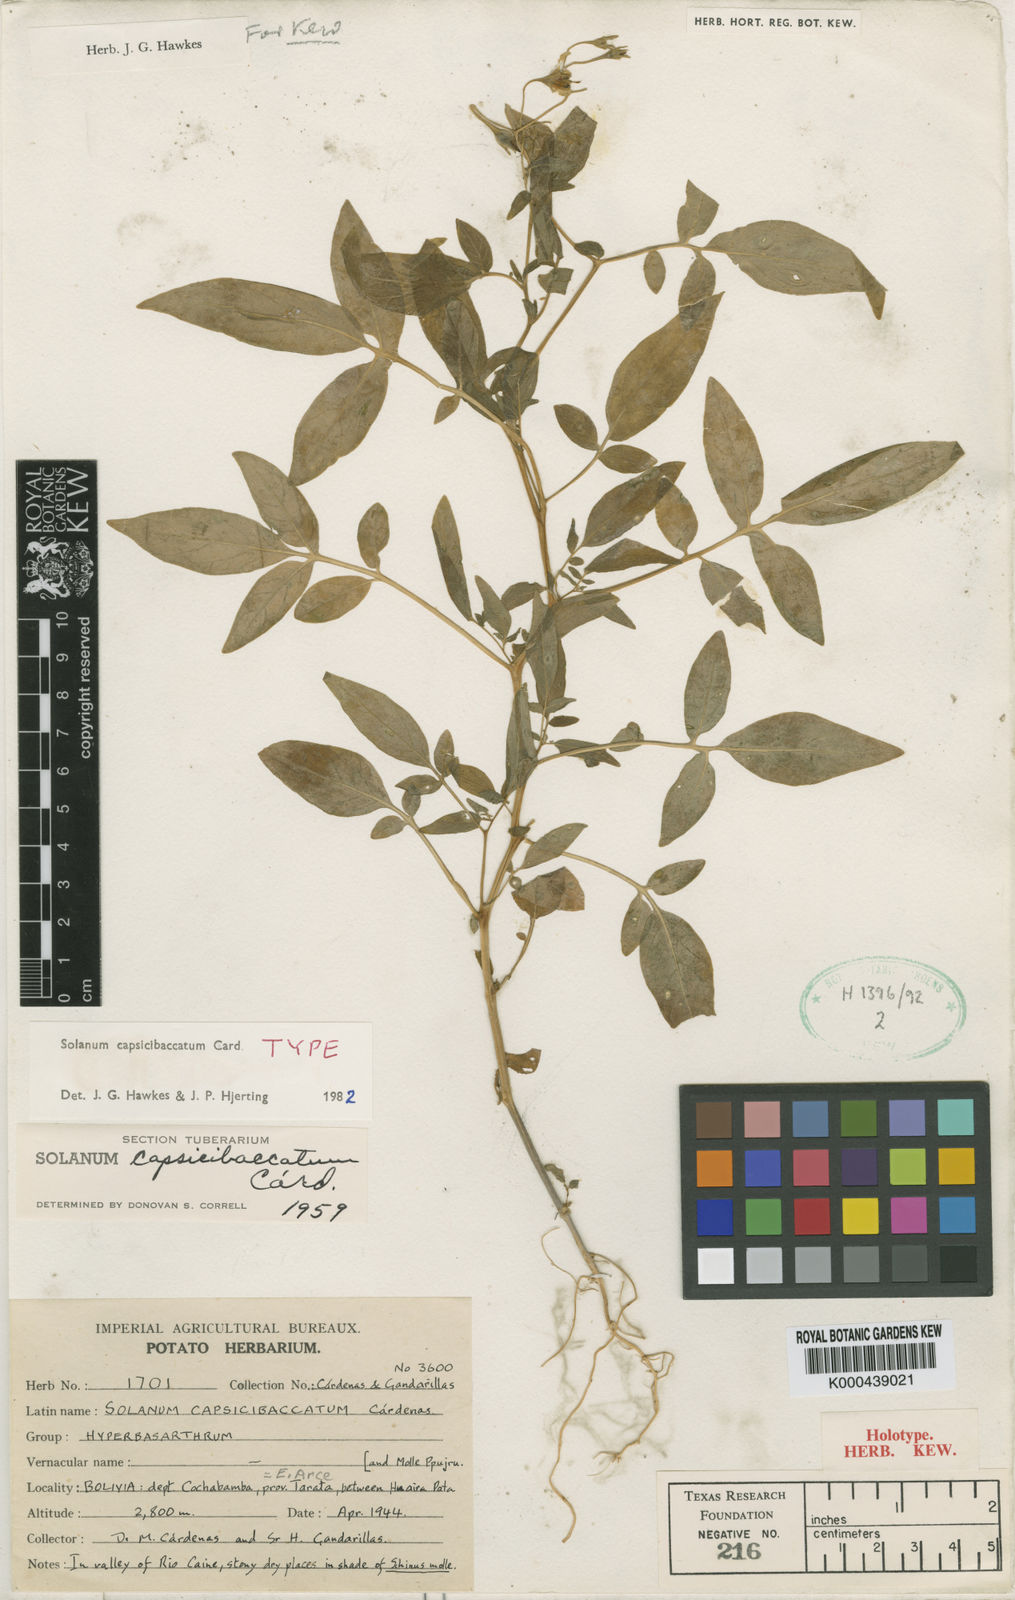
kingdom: Plantae
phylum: Tracheophyta
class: Magnoliopsida
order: Solanales
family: Solanaceae
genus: Solanum
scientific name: Solanum
